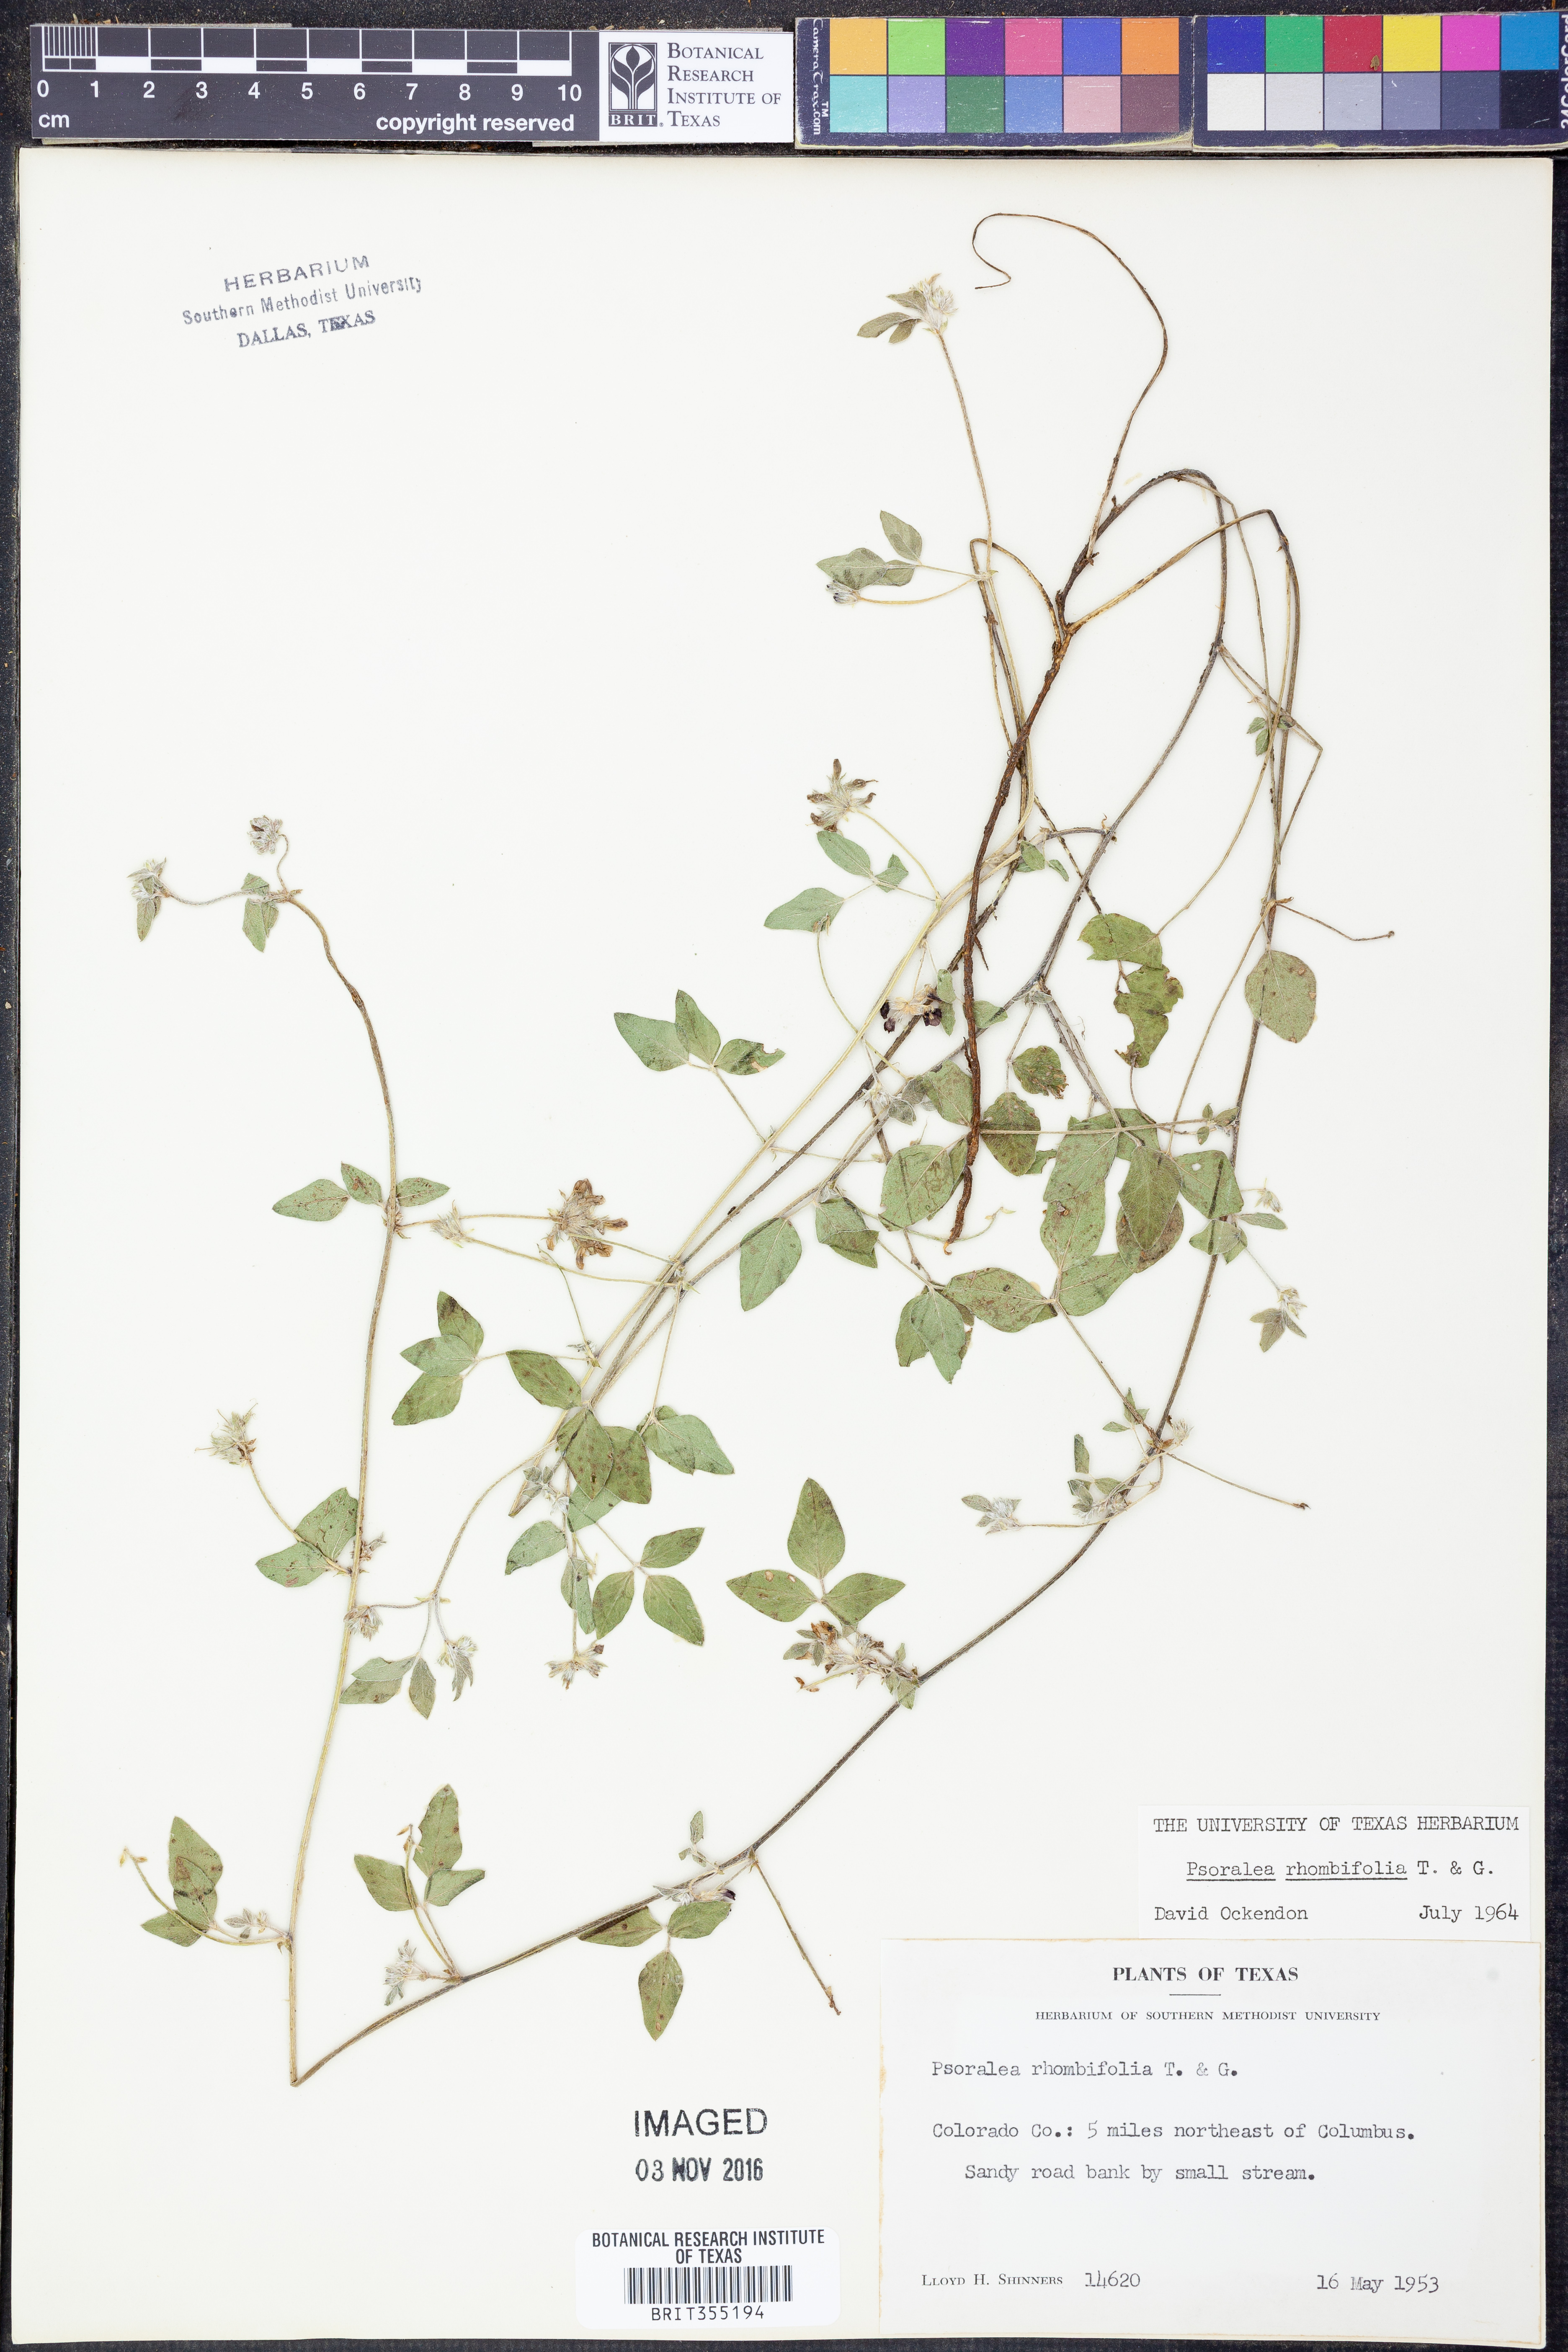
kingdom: Plantae
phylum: Tracheophyta
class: Magnoliopsida
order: Fabales
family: Fabaceae
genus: Pediomelum
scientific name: Pediomelum rhombifolium
